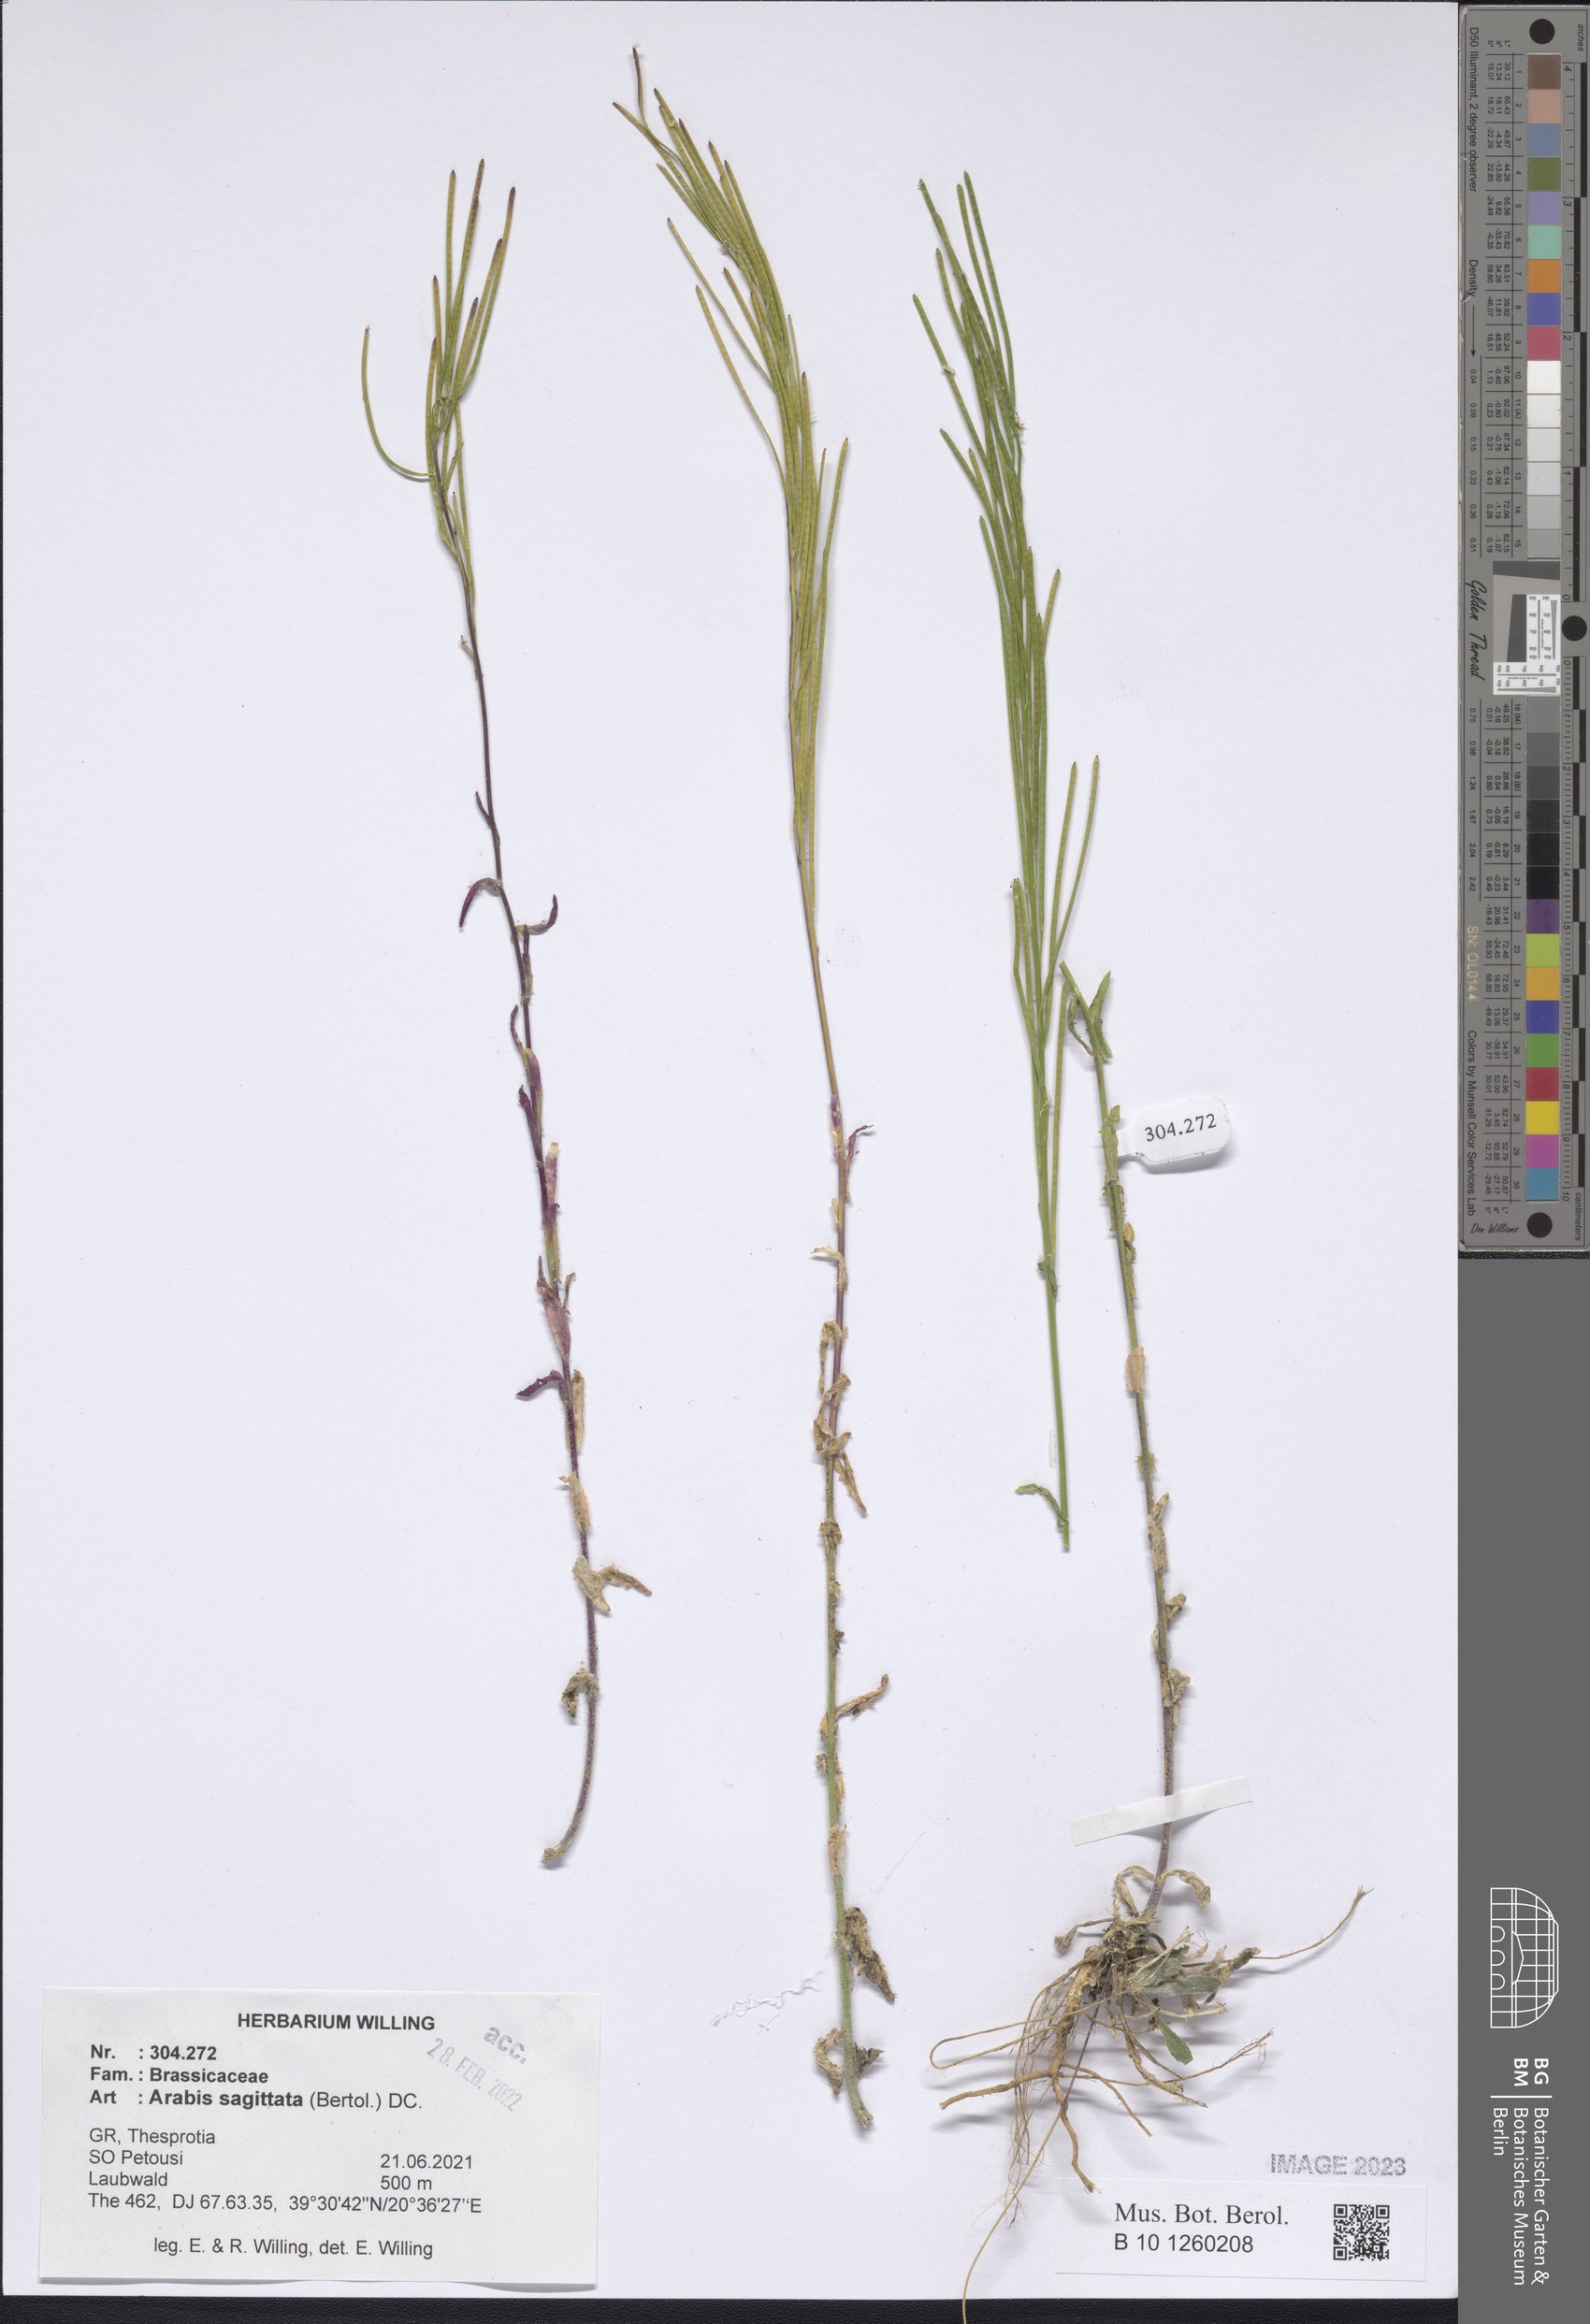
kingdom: Plantae
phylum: Tracheophyta
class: Magnoliopsida
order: Brassicales
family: Brassicaceae
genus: Arabis
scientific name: Arabis sagittata
